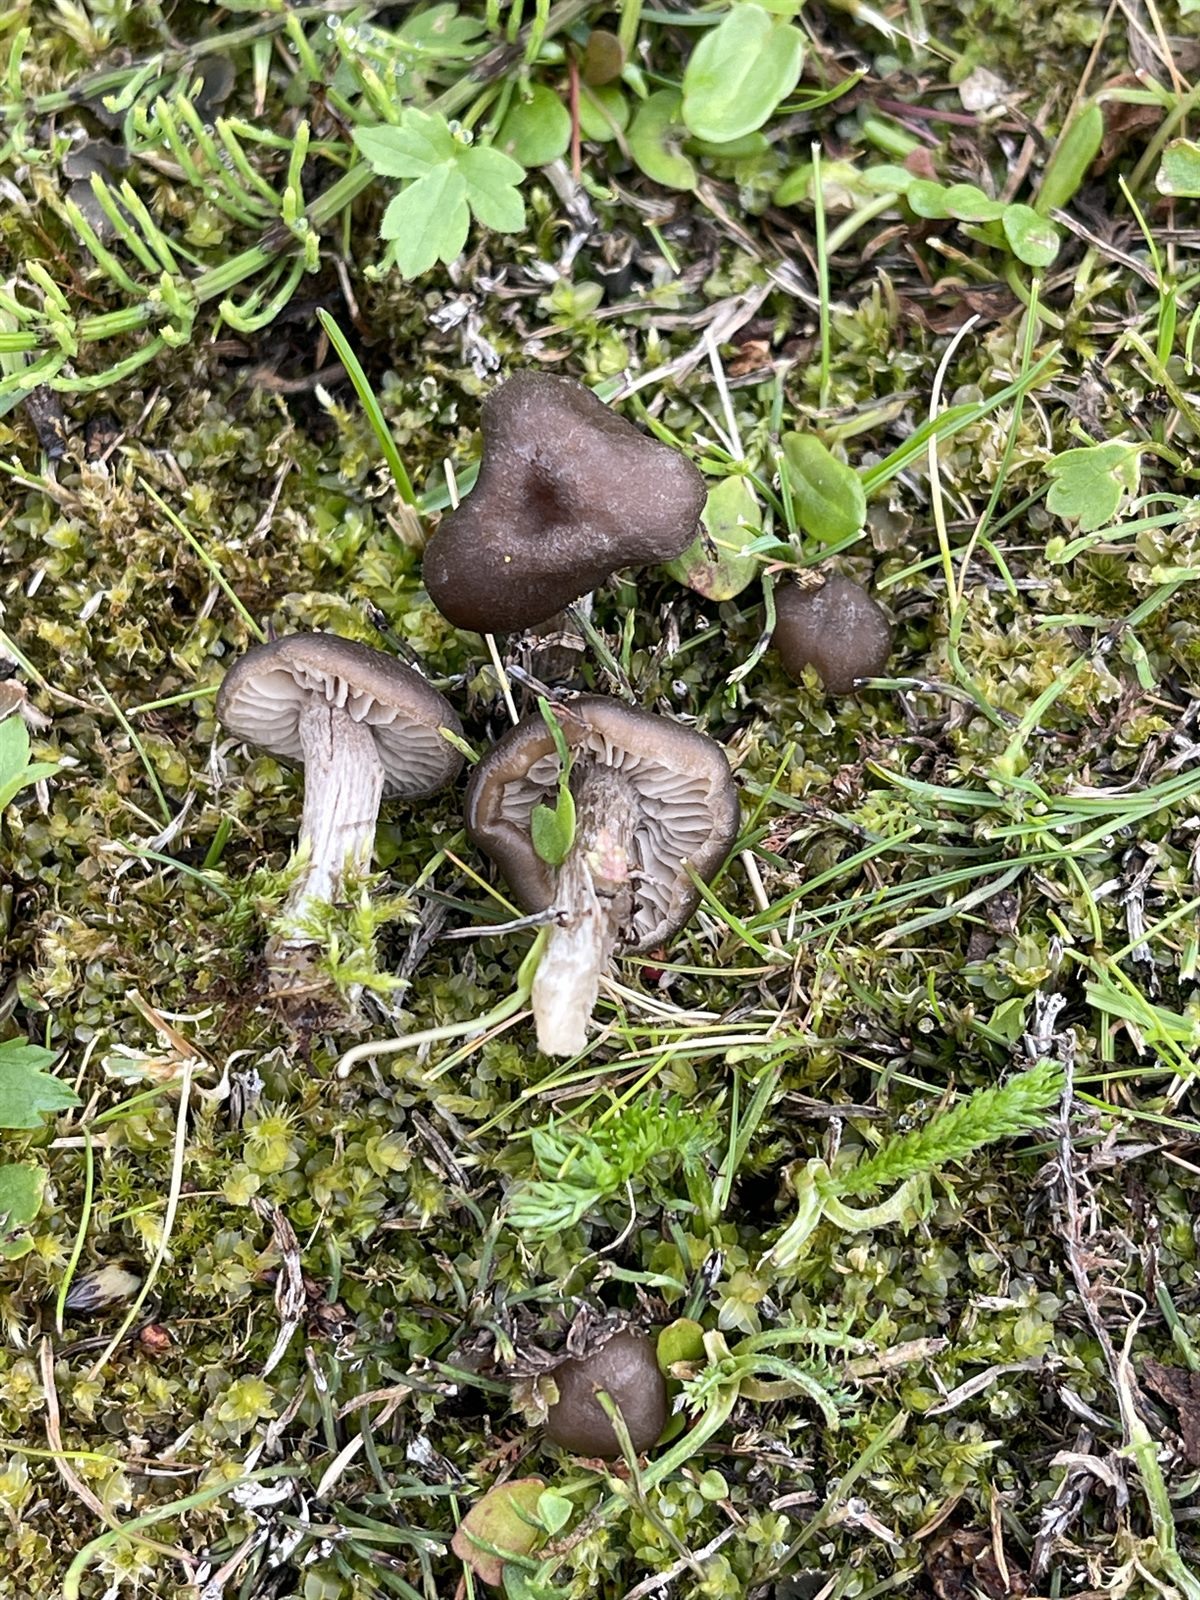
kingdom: Fungi
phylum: Basidiomycota
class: Agaricomycetes
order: Agaricales
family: Entolomataceae
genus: Entoloma
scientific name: Entoloma sericeum
